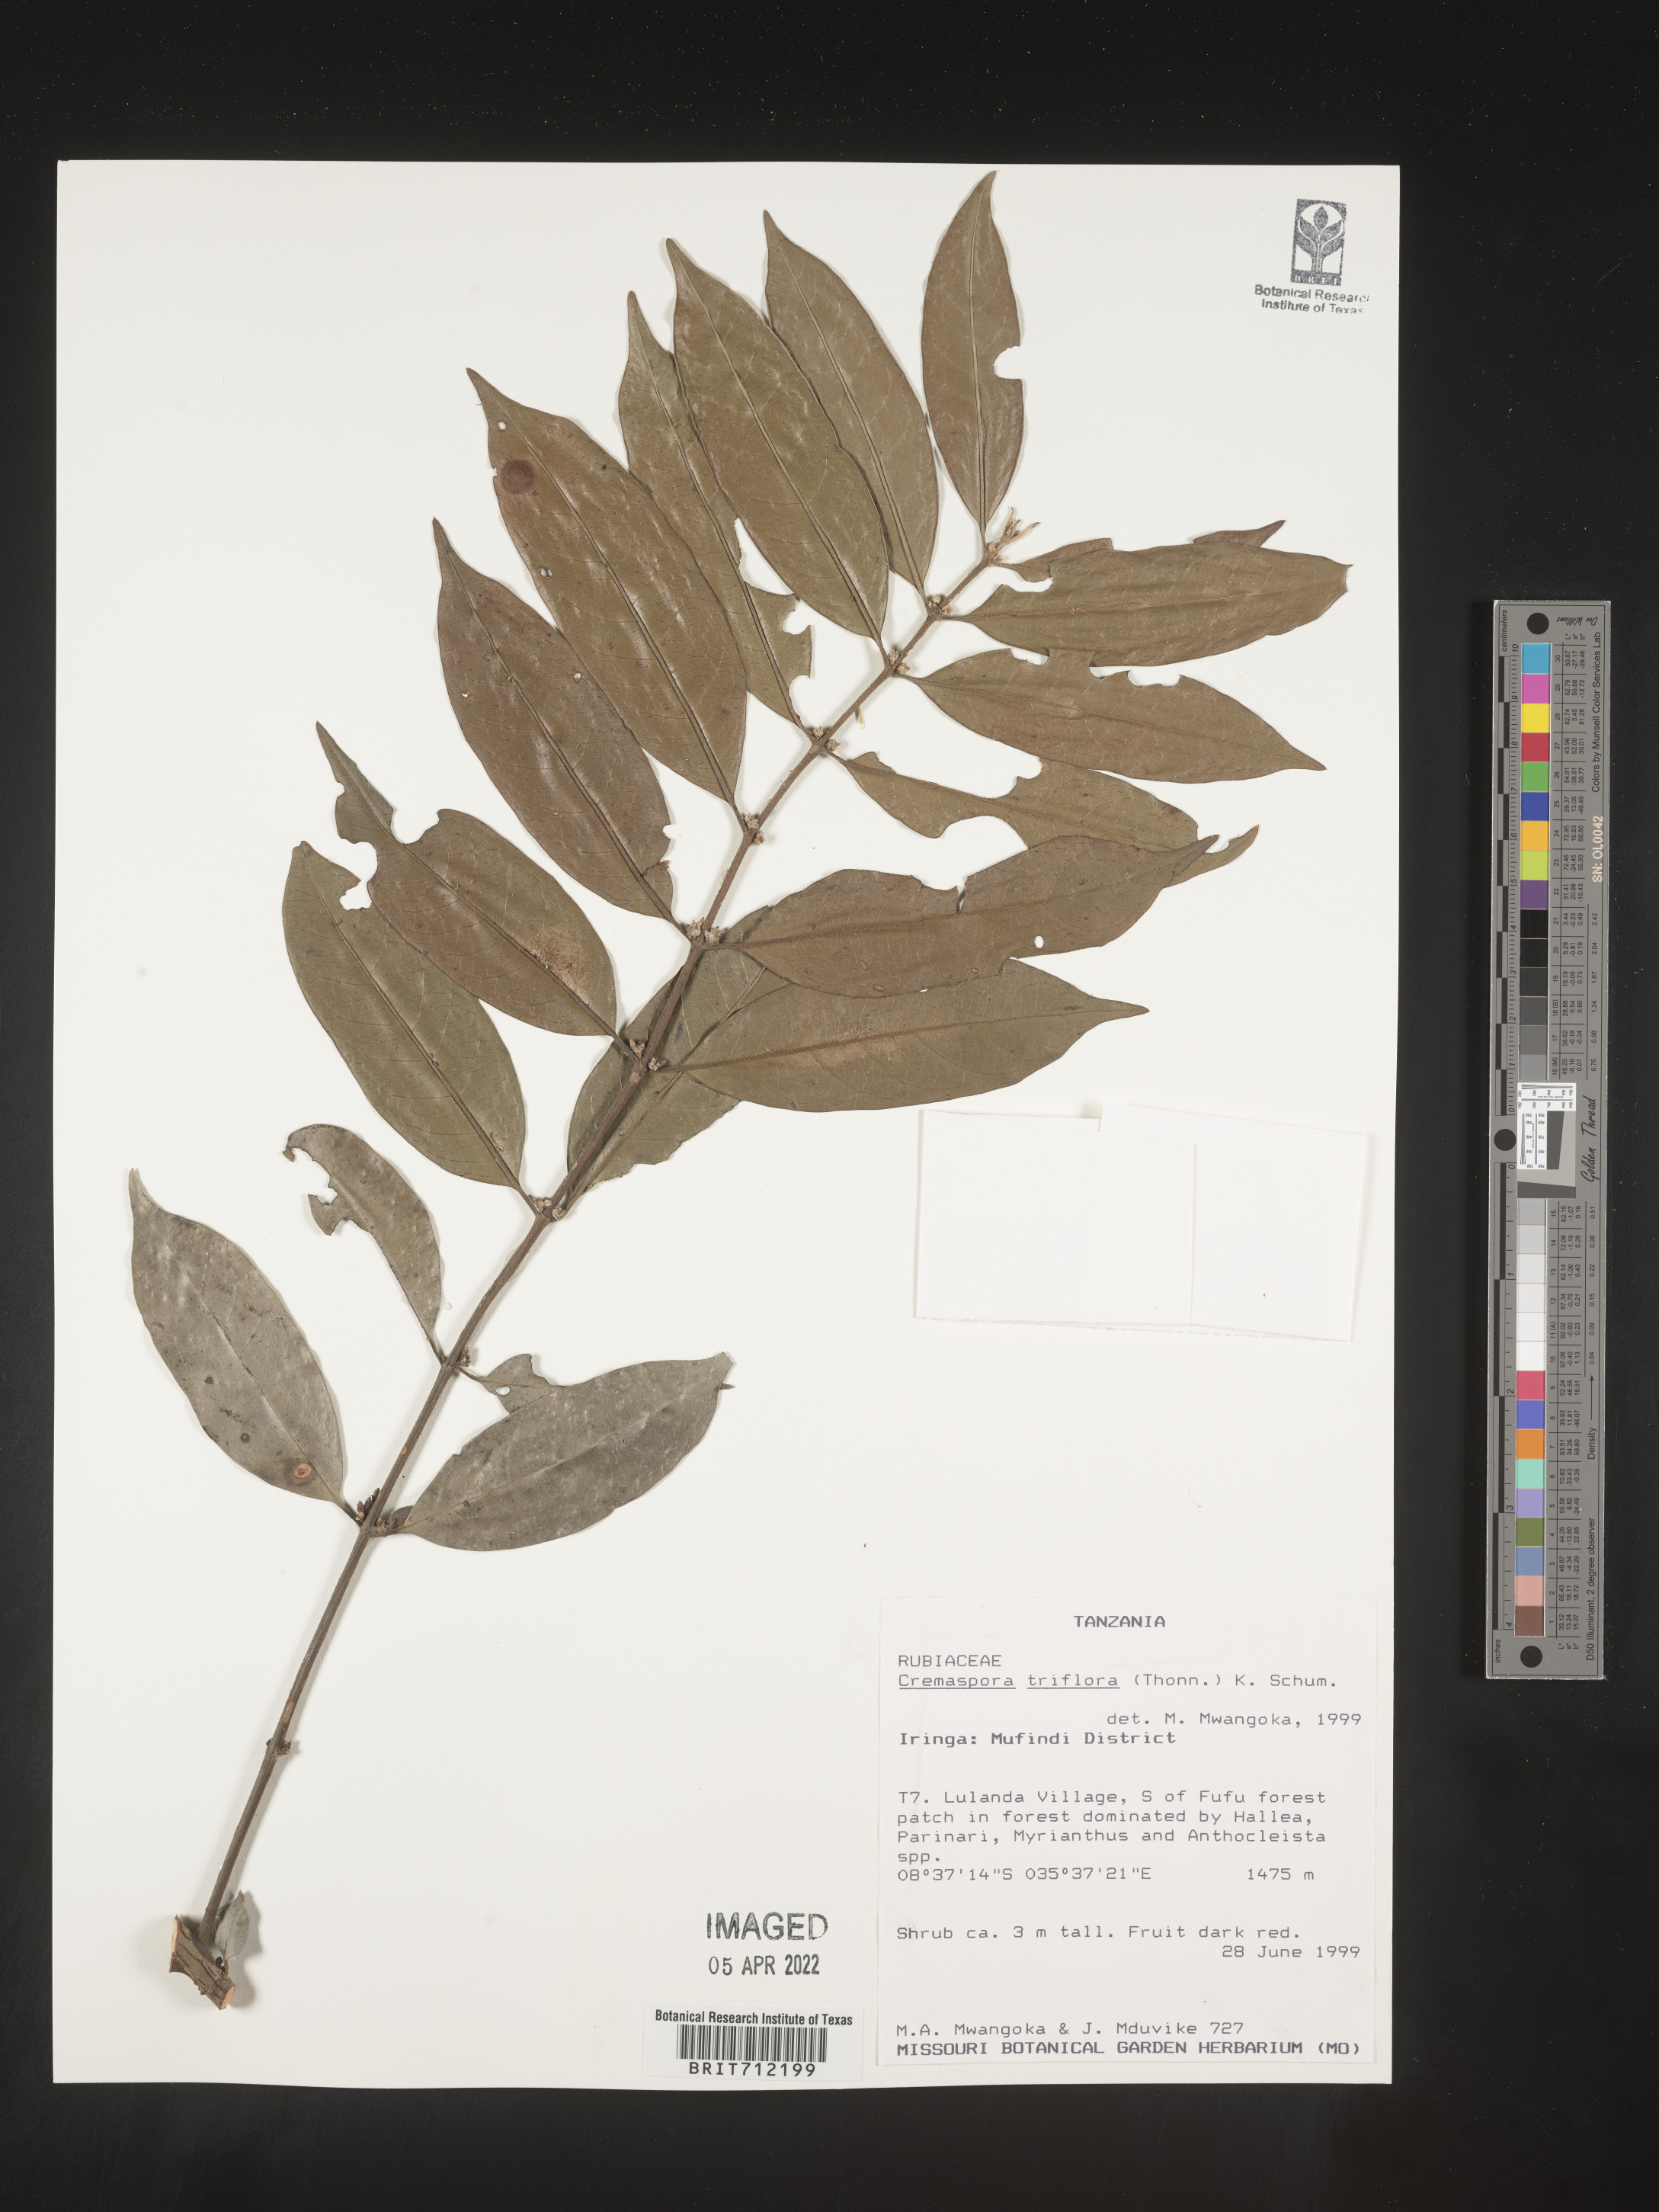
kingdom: Plantae
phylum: Tracheophyta
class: Magnoliopsida
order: Gentianales
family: Rubiaceae
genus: Cremaspora
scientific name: Cremaspora
